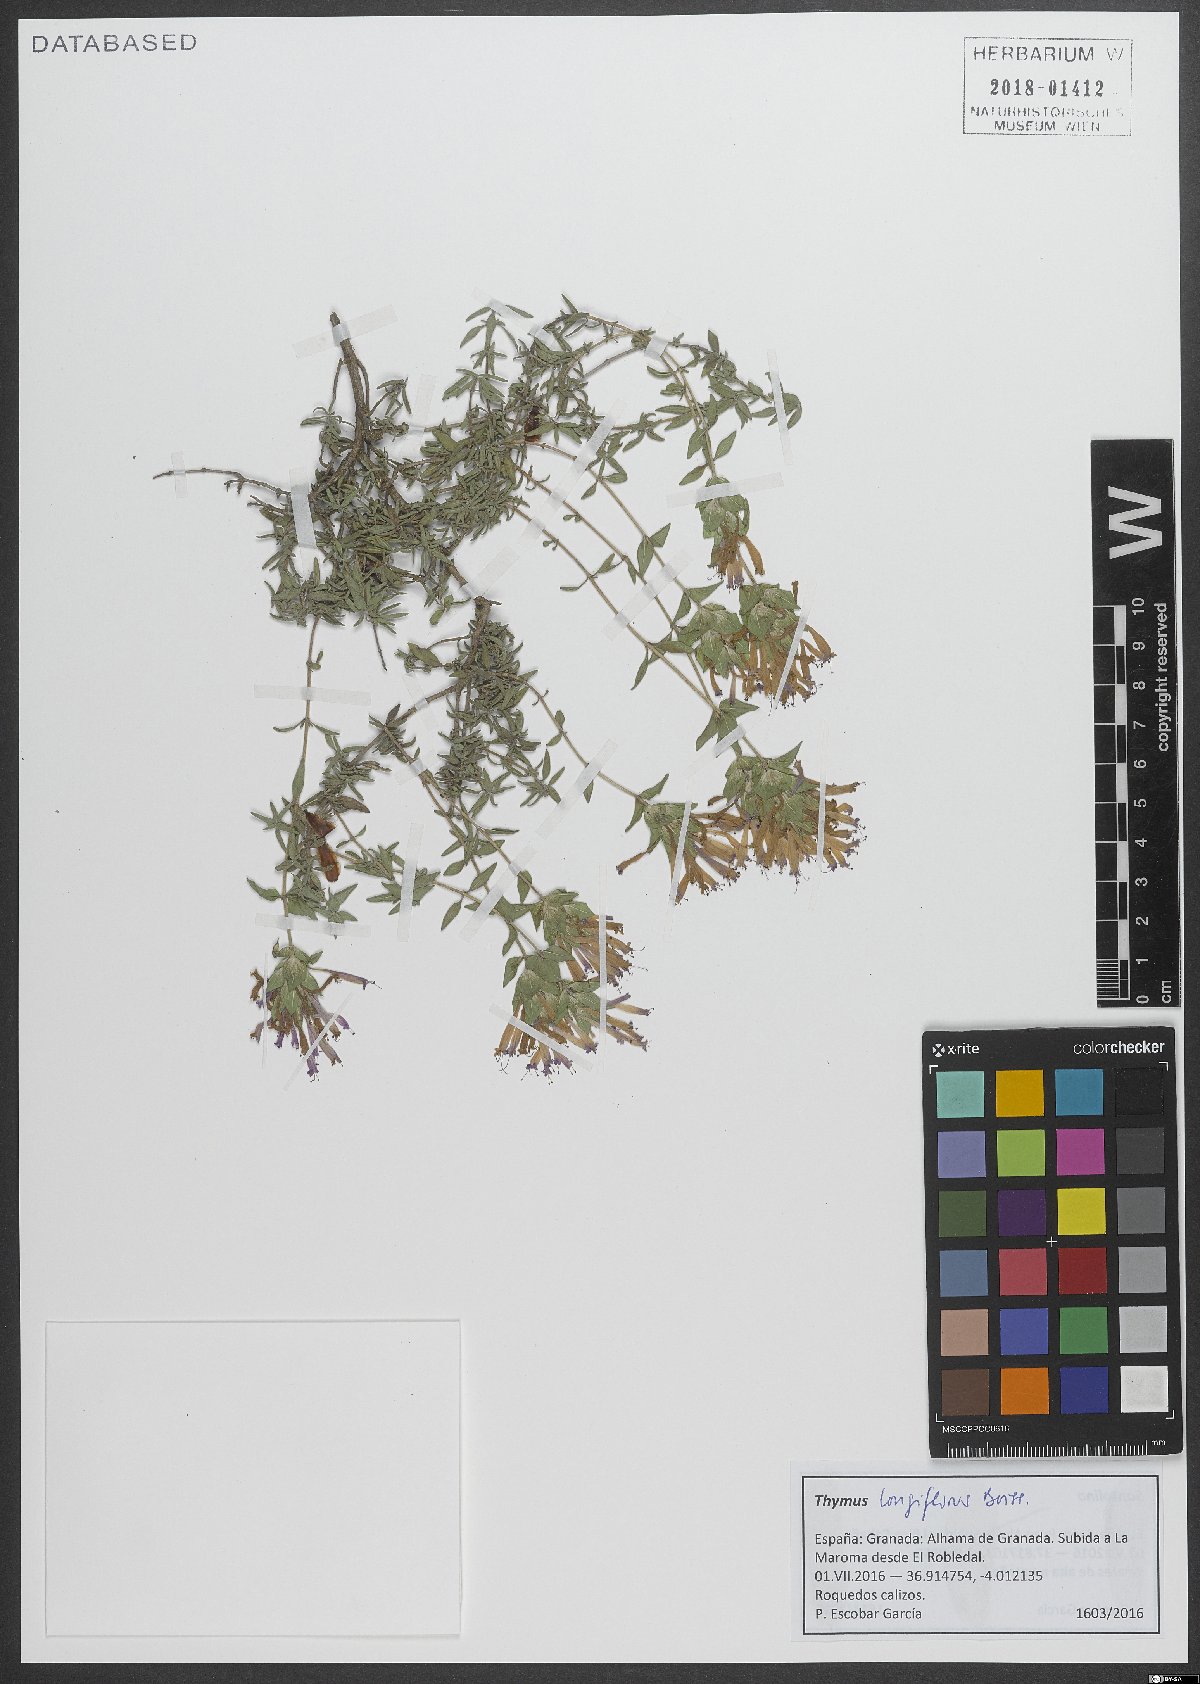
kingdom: Plantae
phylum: Tracheophyta
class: Magnoliopsida
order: Lamiales
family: Lamiaceae
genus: Thymus
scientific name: Thymus longiflorus
